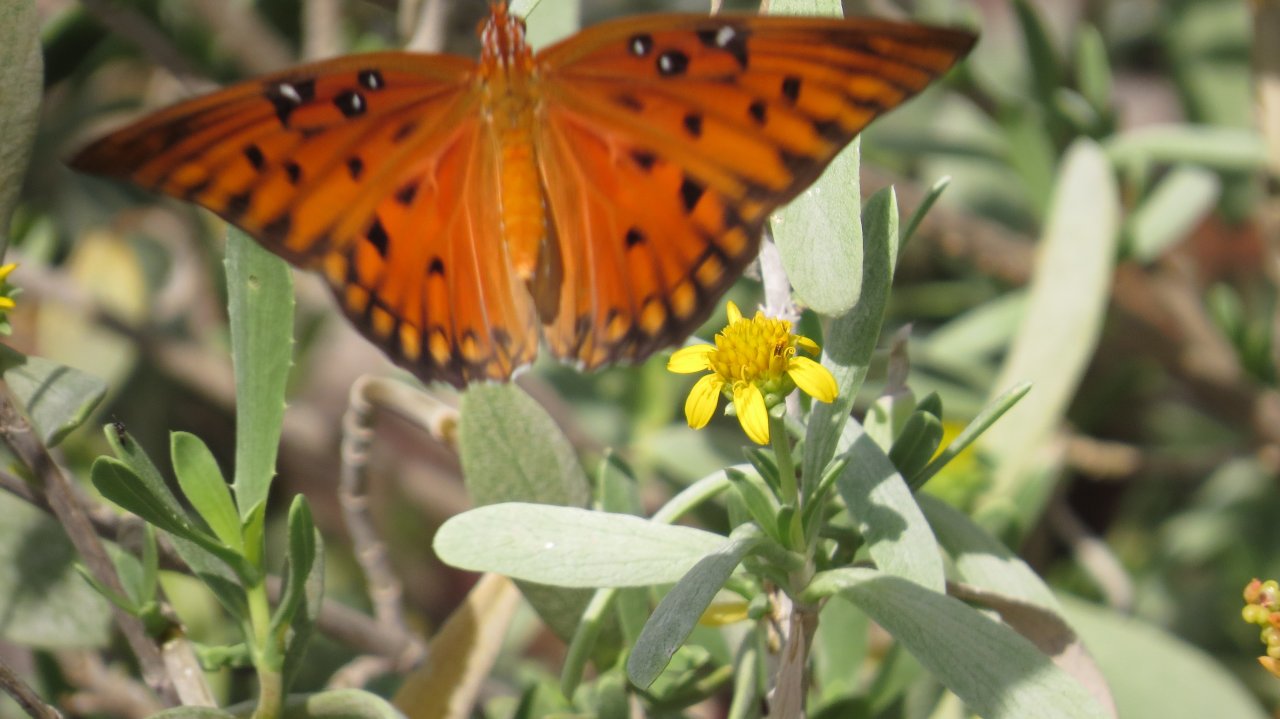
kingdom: Animalia
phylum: Arthropoda
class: Insecta
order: Lepidoptera
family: Nymphalidae
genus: Dione
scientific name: Dione vanillae
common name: Gulf Fritillary
